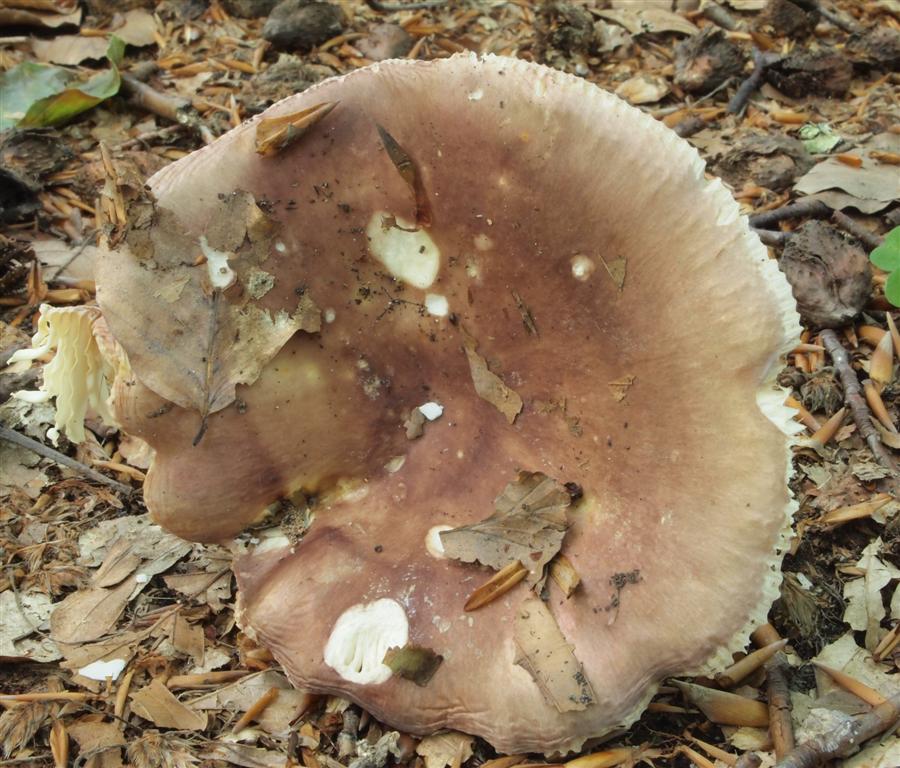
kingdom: Fungi
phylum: Basidiomycota
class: Agaricomycetes
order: Russulales
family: Russulaceae
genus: Russula
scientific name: Russula vesca
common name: spiselig skørhat
